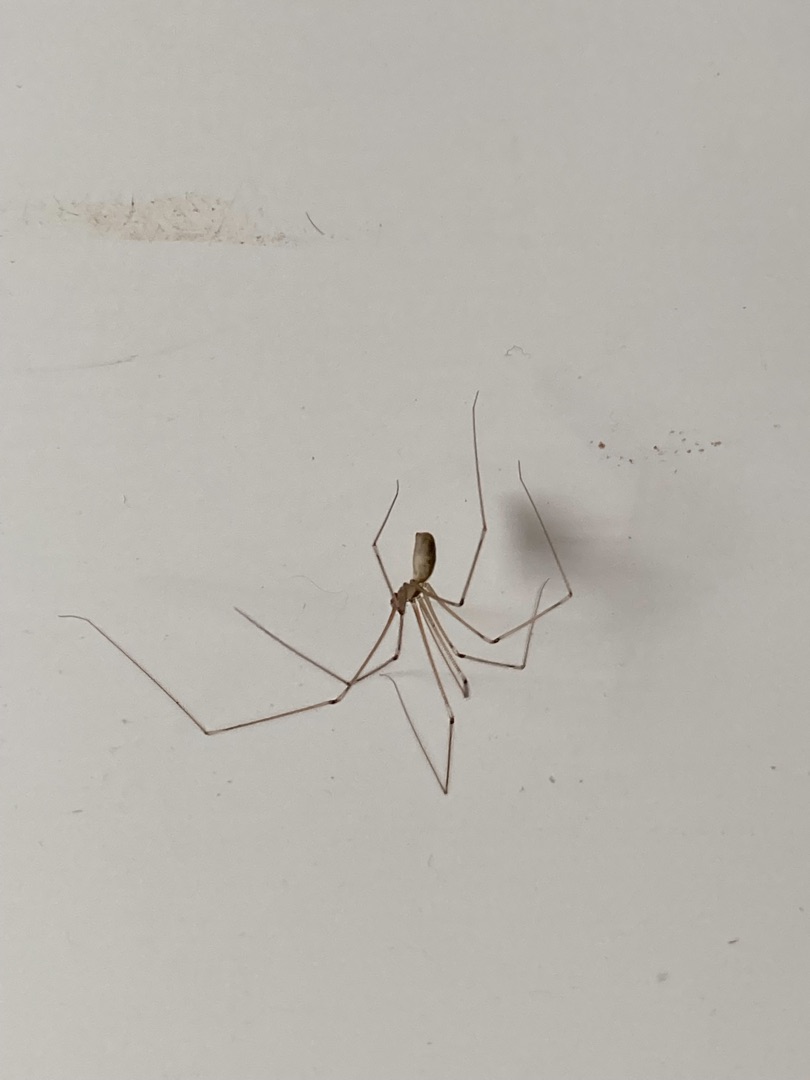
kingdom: Animalia
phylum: Arthropoda
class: Arachnida
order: Araneae
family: Pholcidae
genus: Pholcus
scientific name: Pholcus phalangioides
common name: Mejeredderkop
